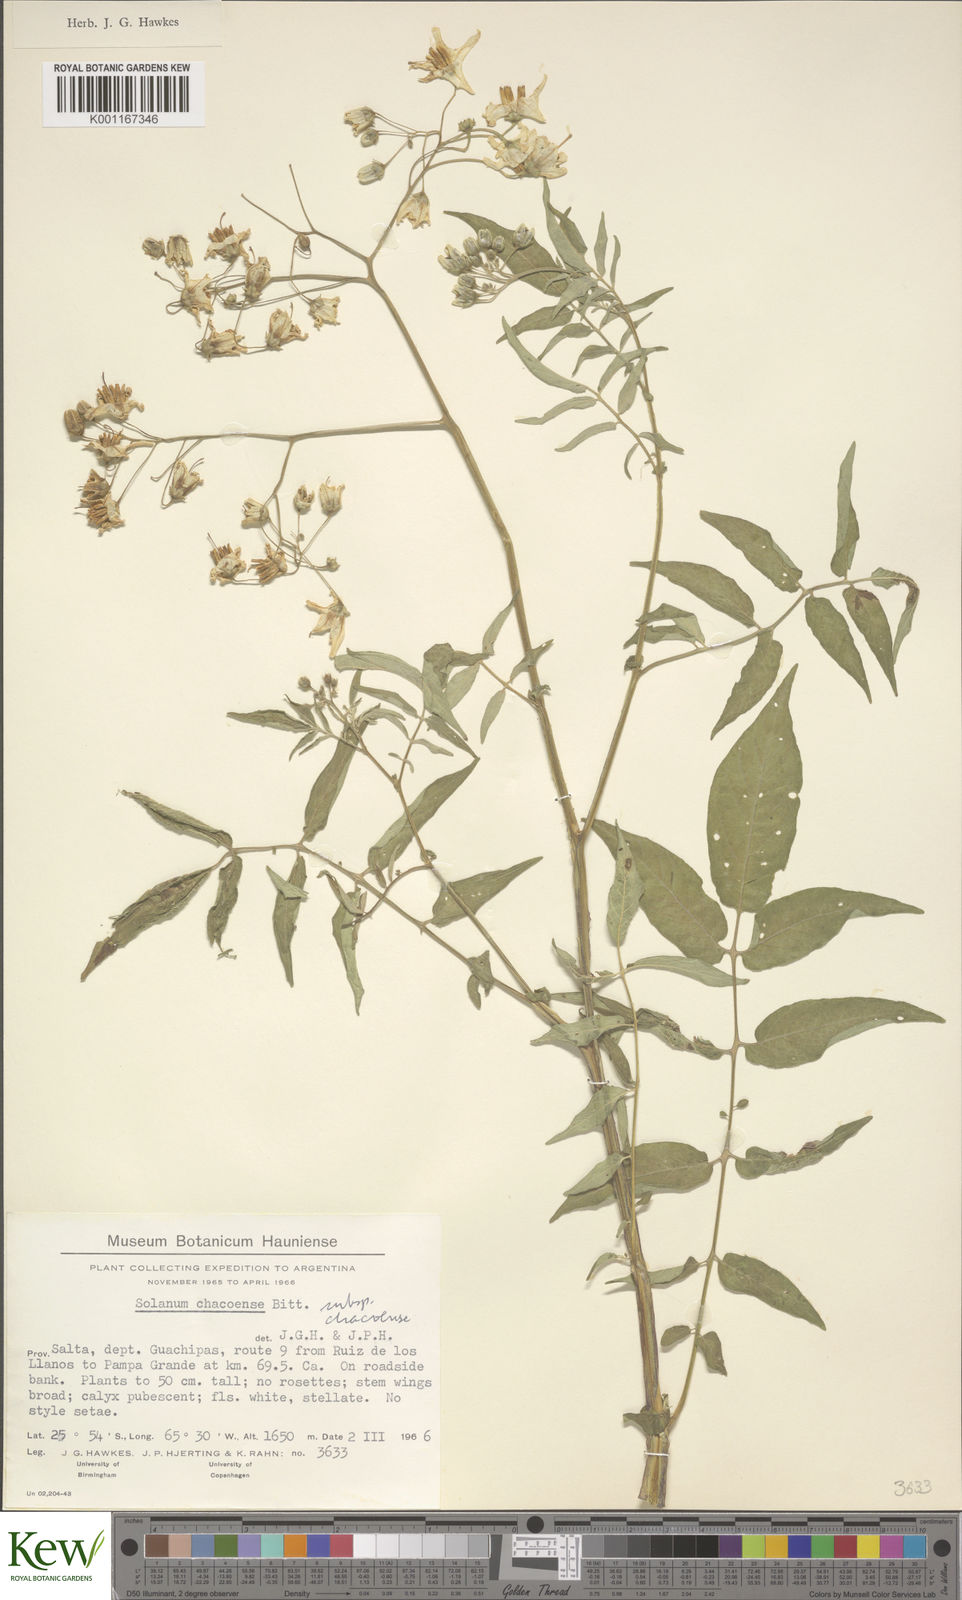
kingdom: Plantae
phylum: Tracheophyta
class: Magnoliopsida
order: Solanales
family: Solanaceae
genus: Solanum
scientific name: Solanum chacoense
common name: Chaco potato
